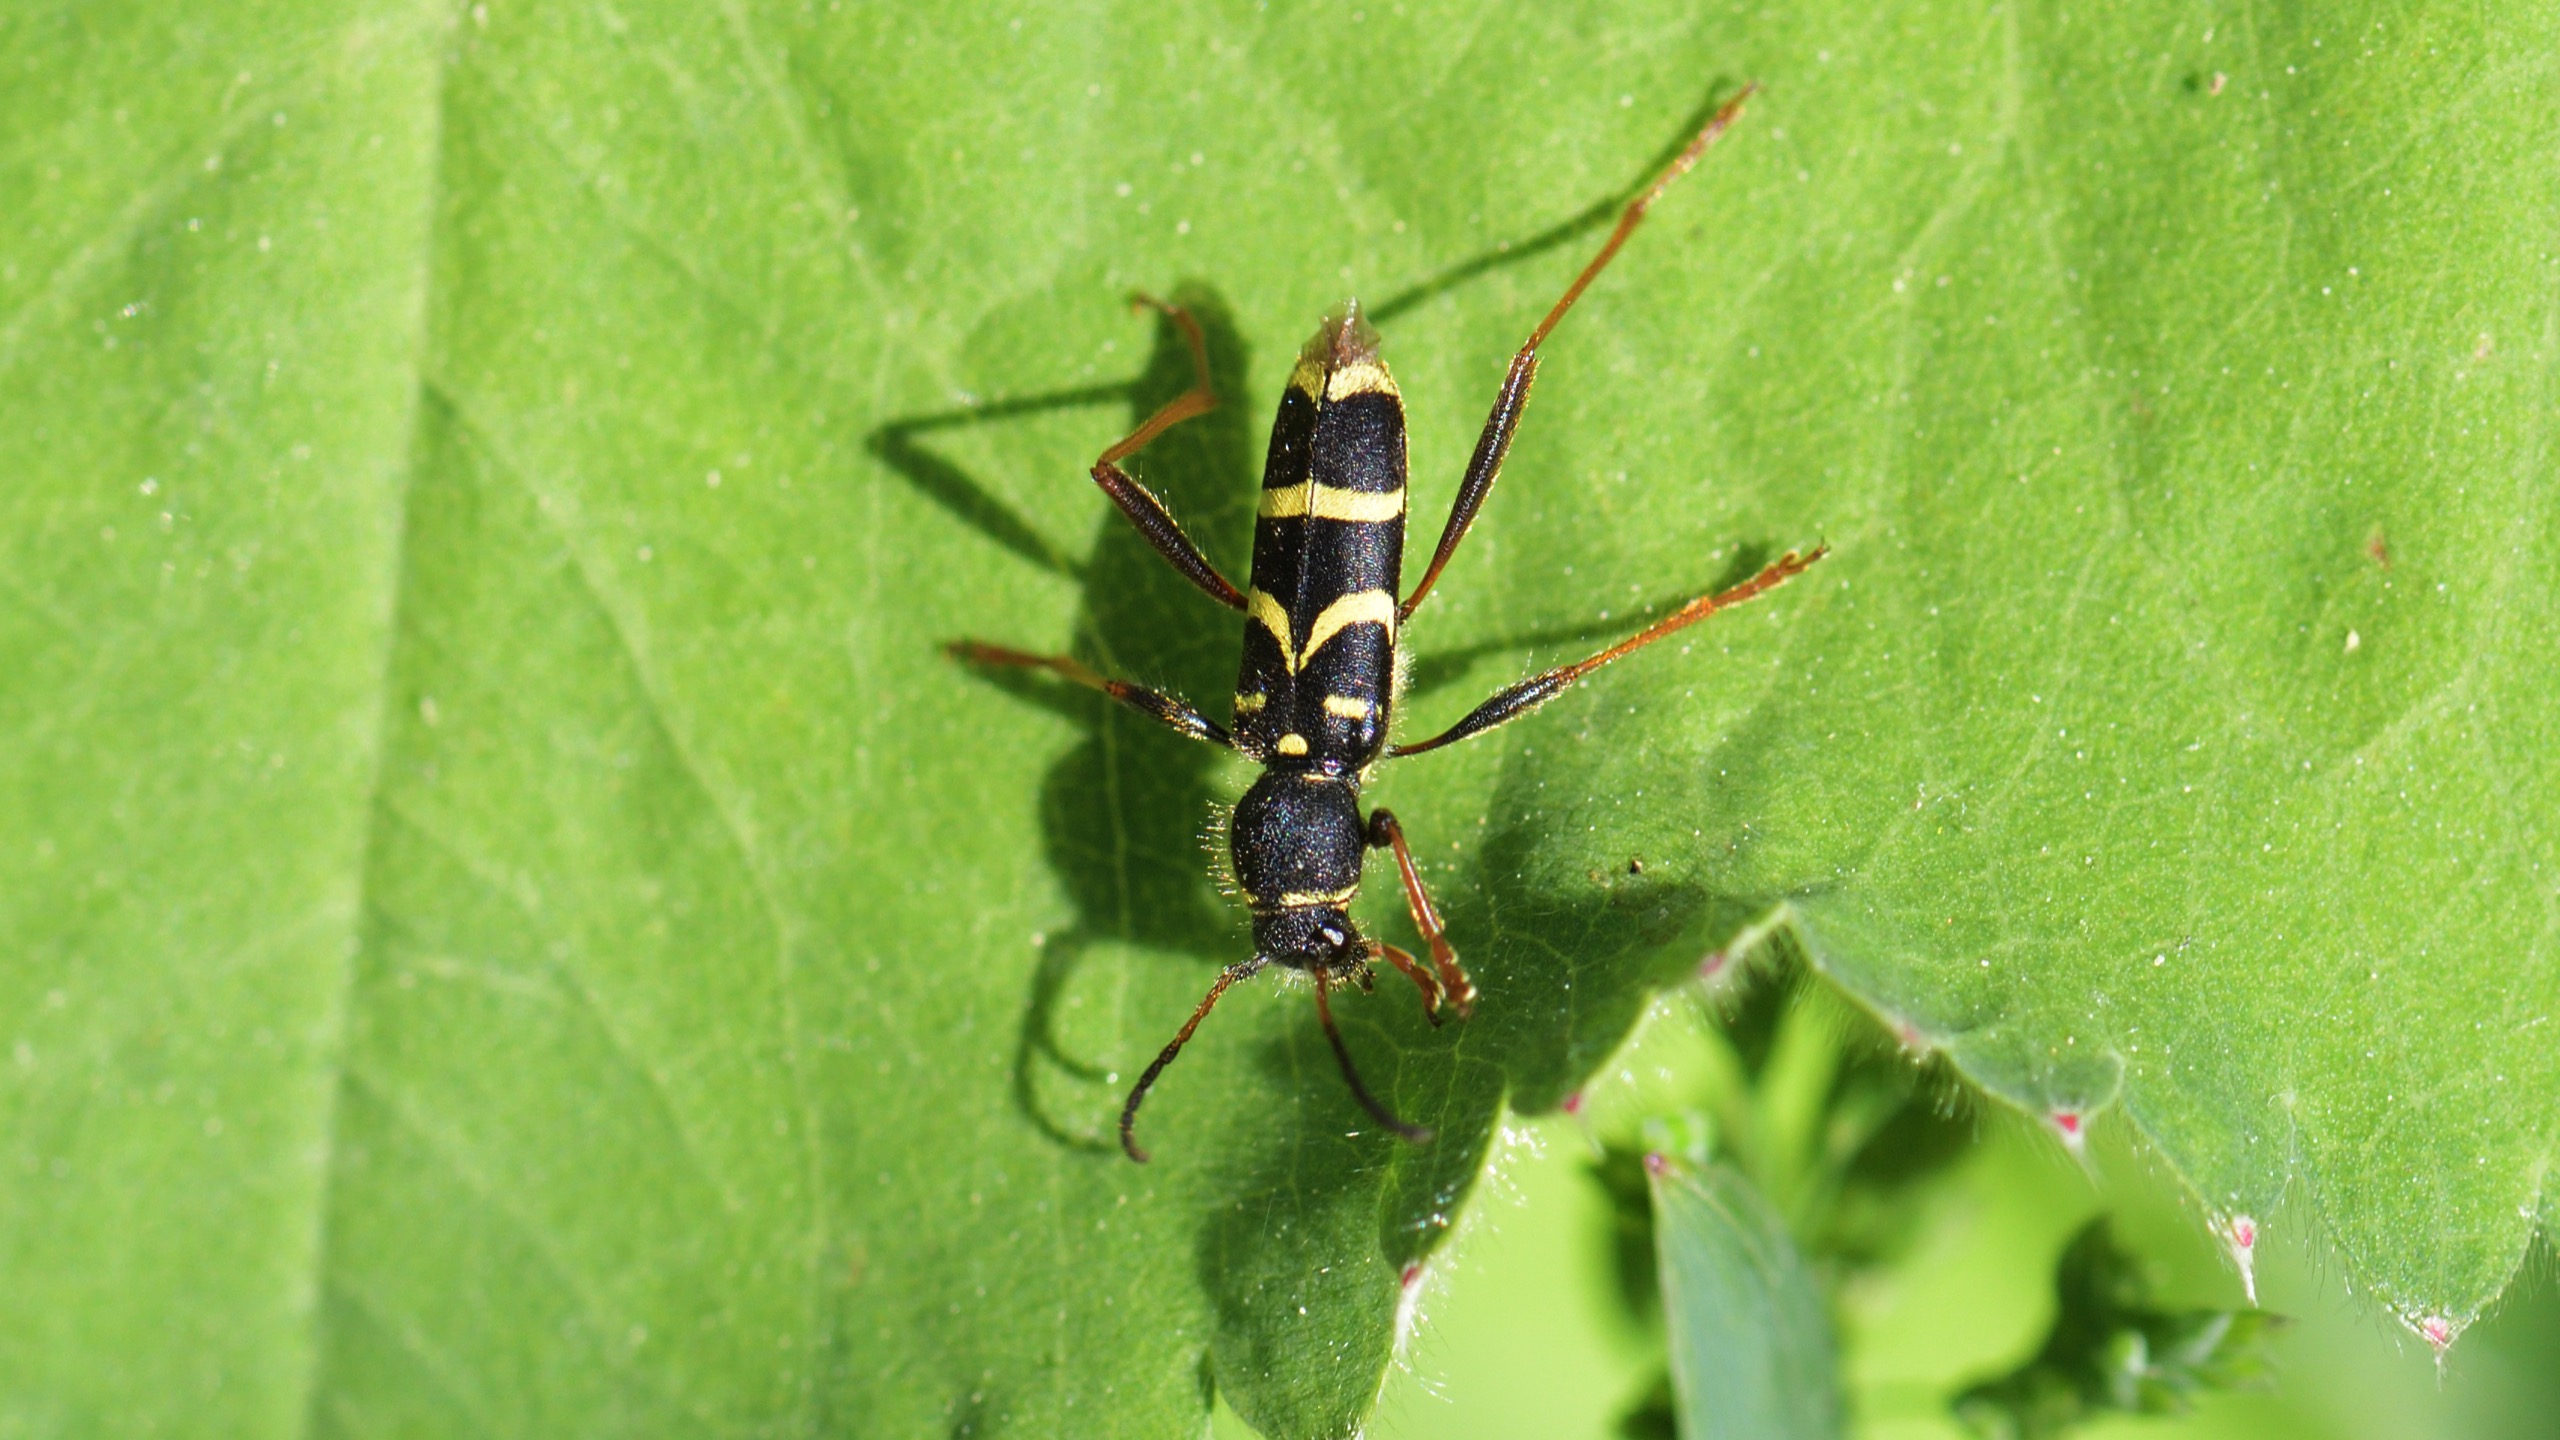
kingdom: Animalia
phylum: Arthropoda
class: Insecta
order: Coleoptera
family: Cerambycidae
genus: Clytus
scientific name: Clytus arietis
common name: Lille hvepsebuk
